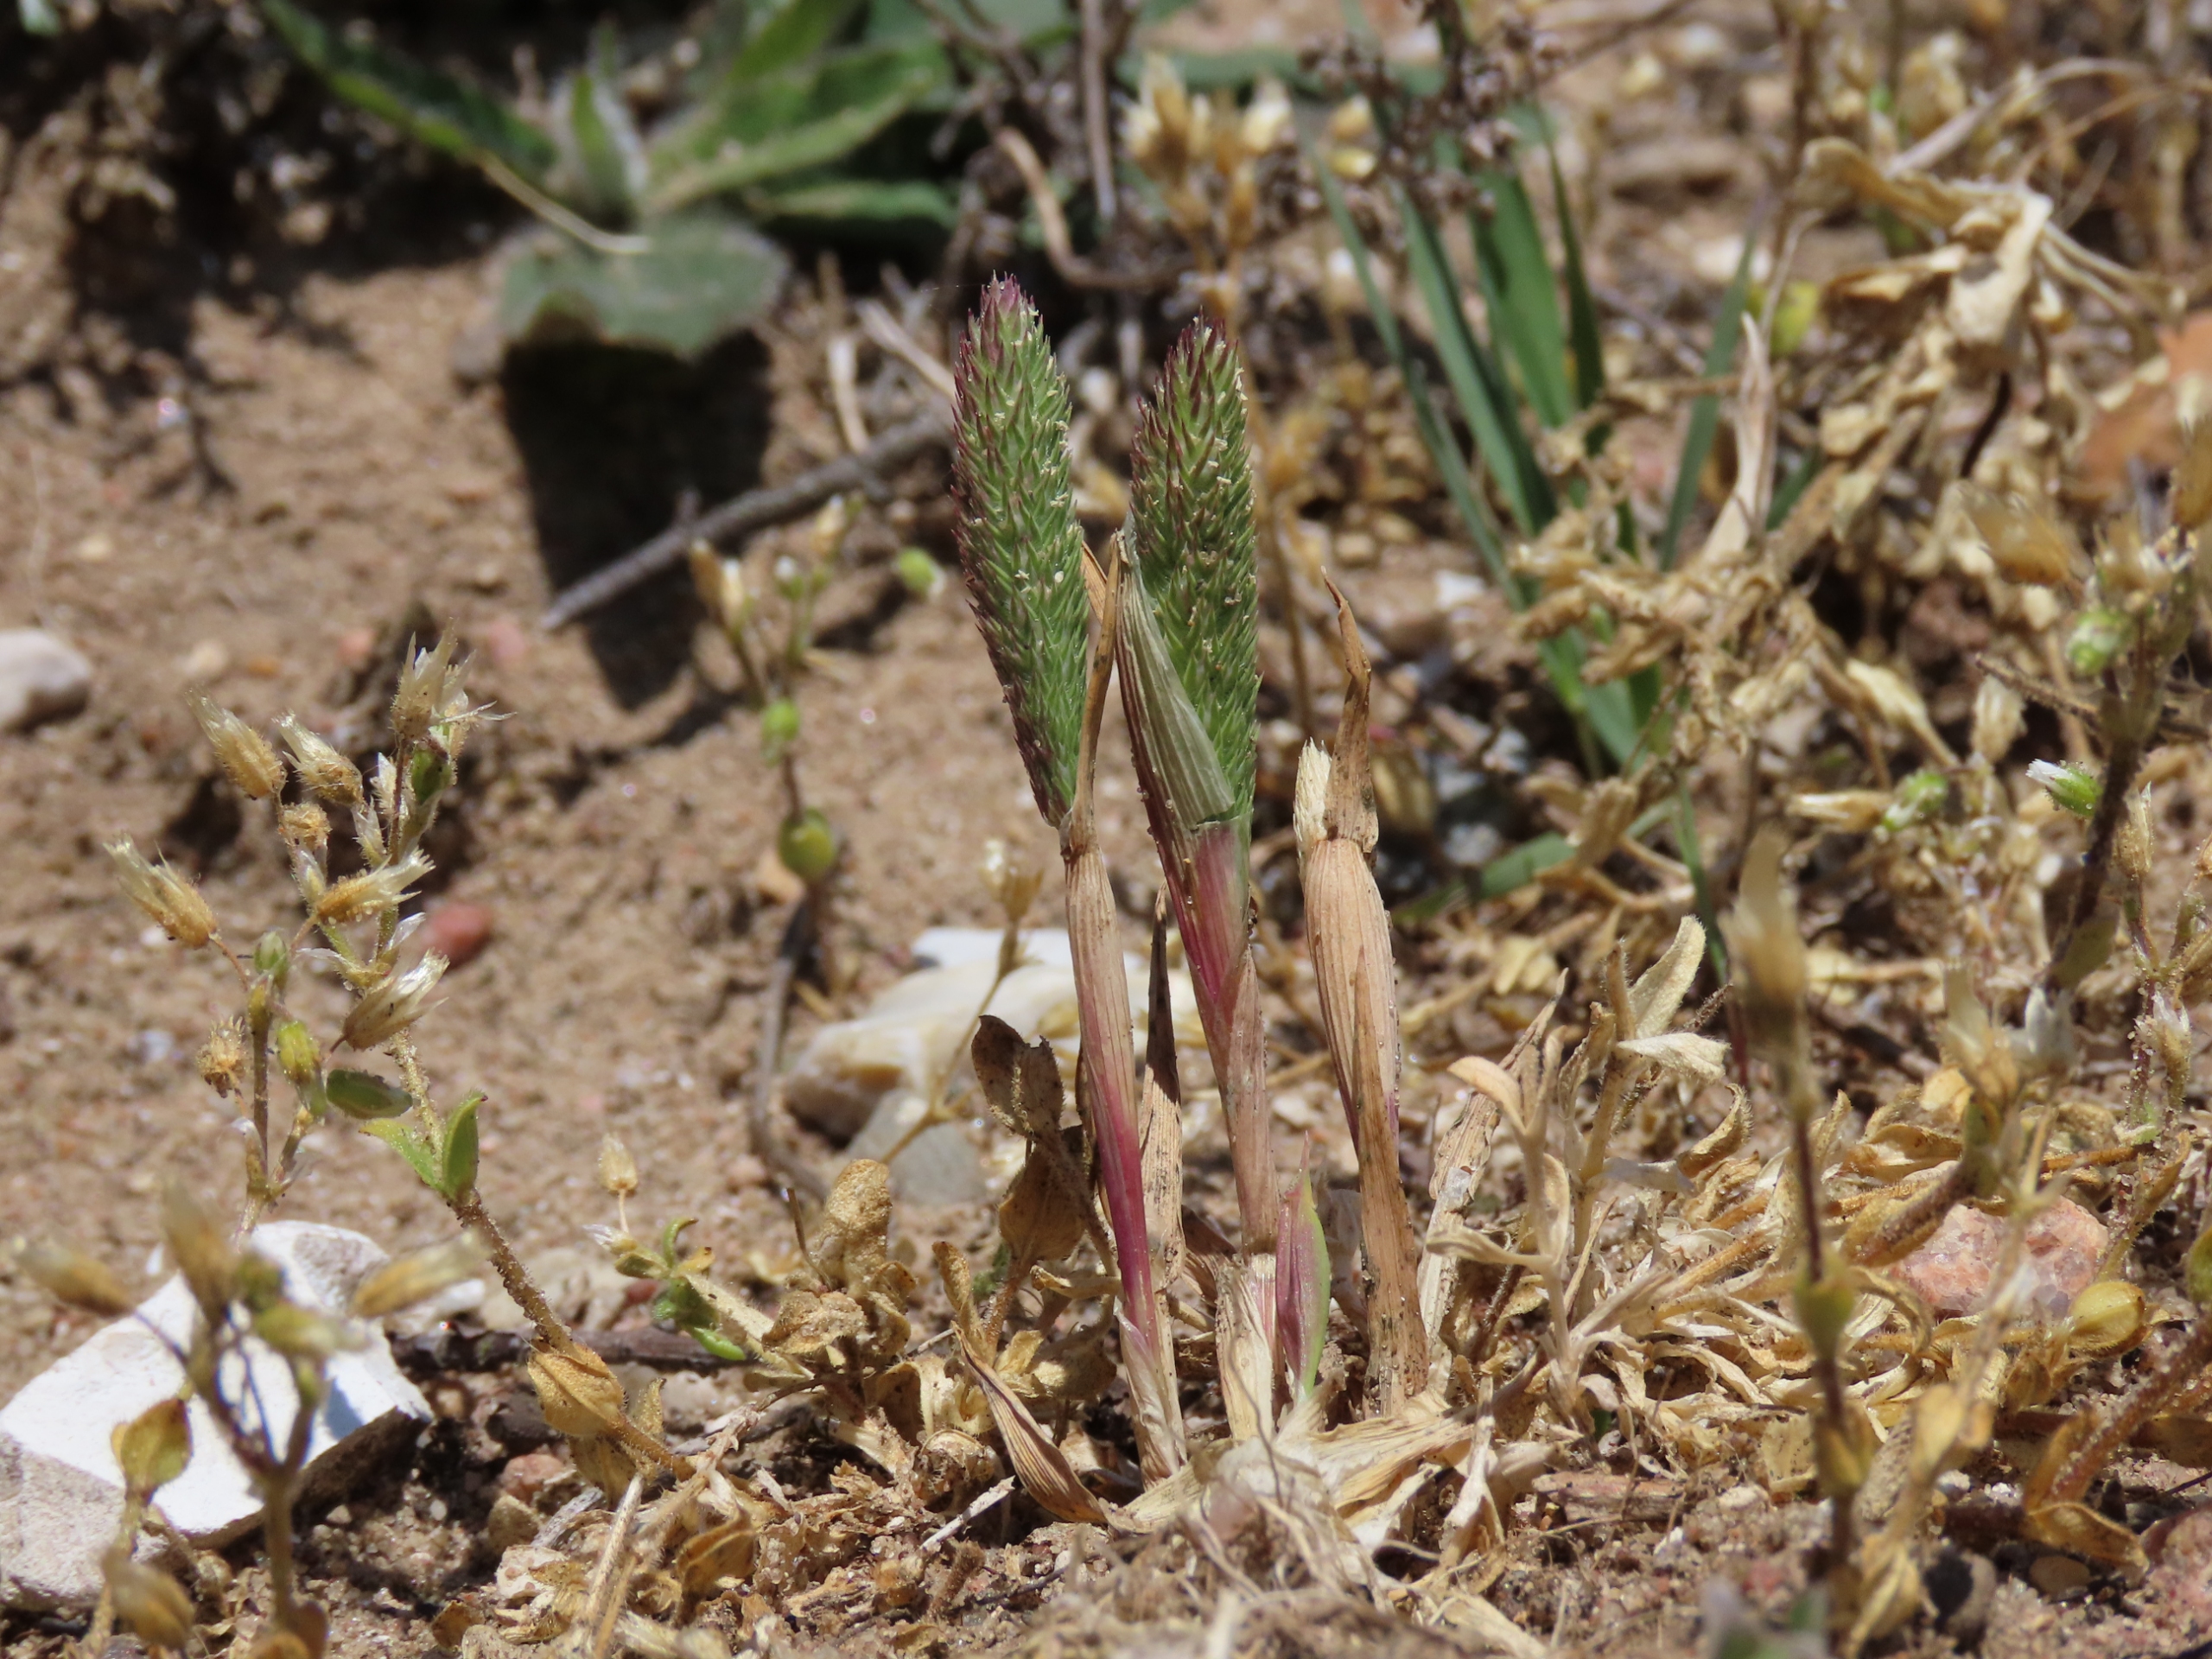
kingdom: Plantae
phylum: Tracheophyta
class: Liliopsida
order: Poales
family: Poaceae
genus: Phleum
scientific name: Phleum arenarium
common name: Sand-rottehale
